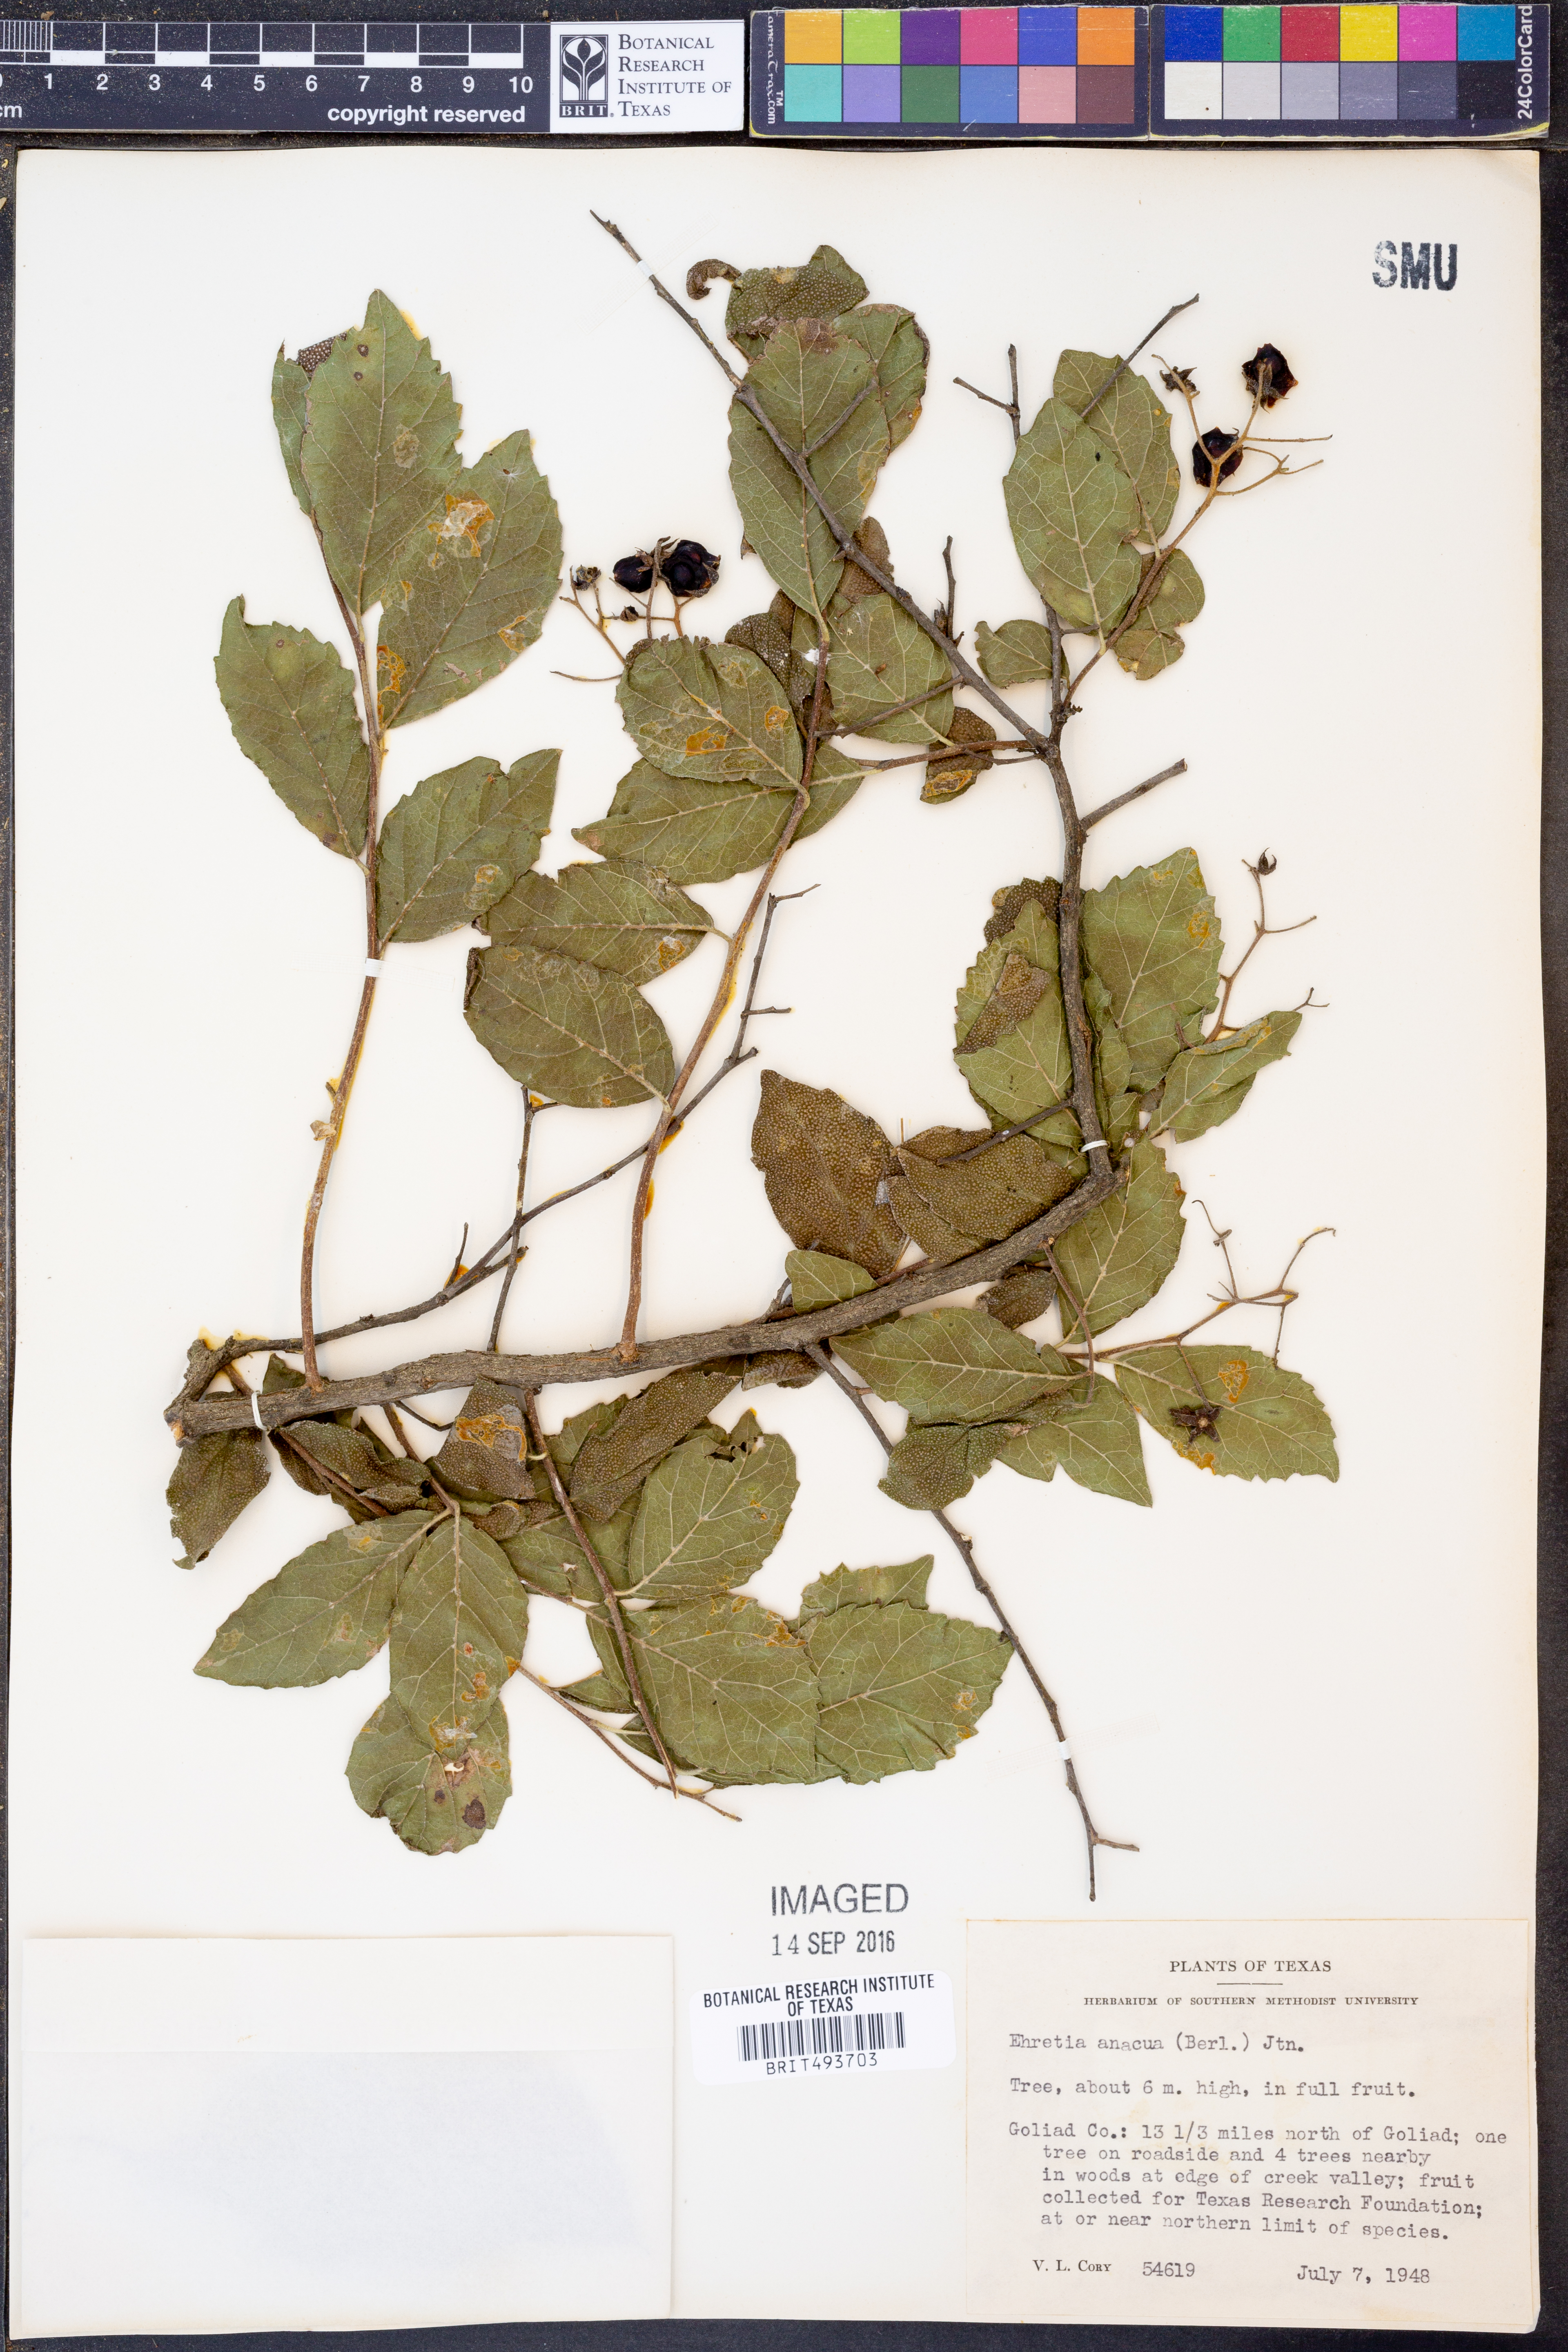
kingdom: Plantae
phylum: Tracheophyta
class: Magnoliopsida
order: Boraginales
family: Ehretiaceae
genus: Ehretia
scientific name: Ehretia anacua
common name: Sugarberry
